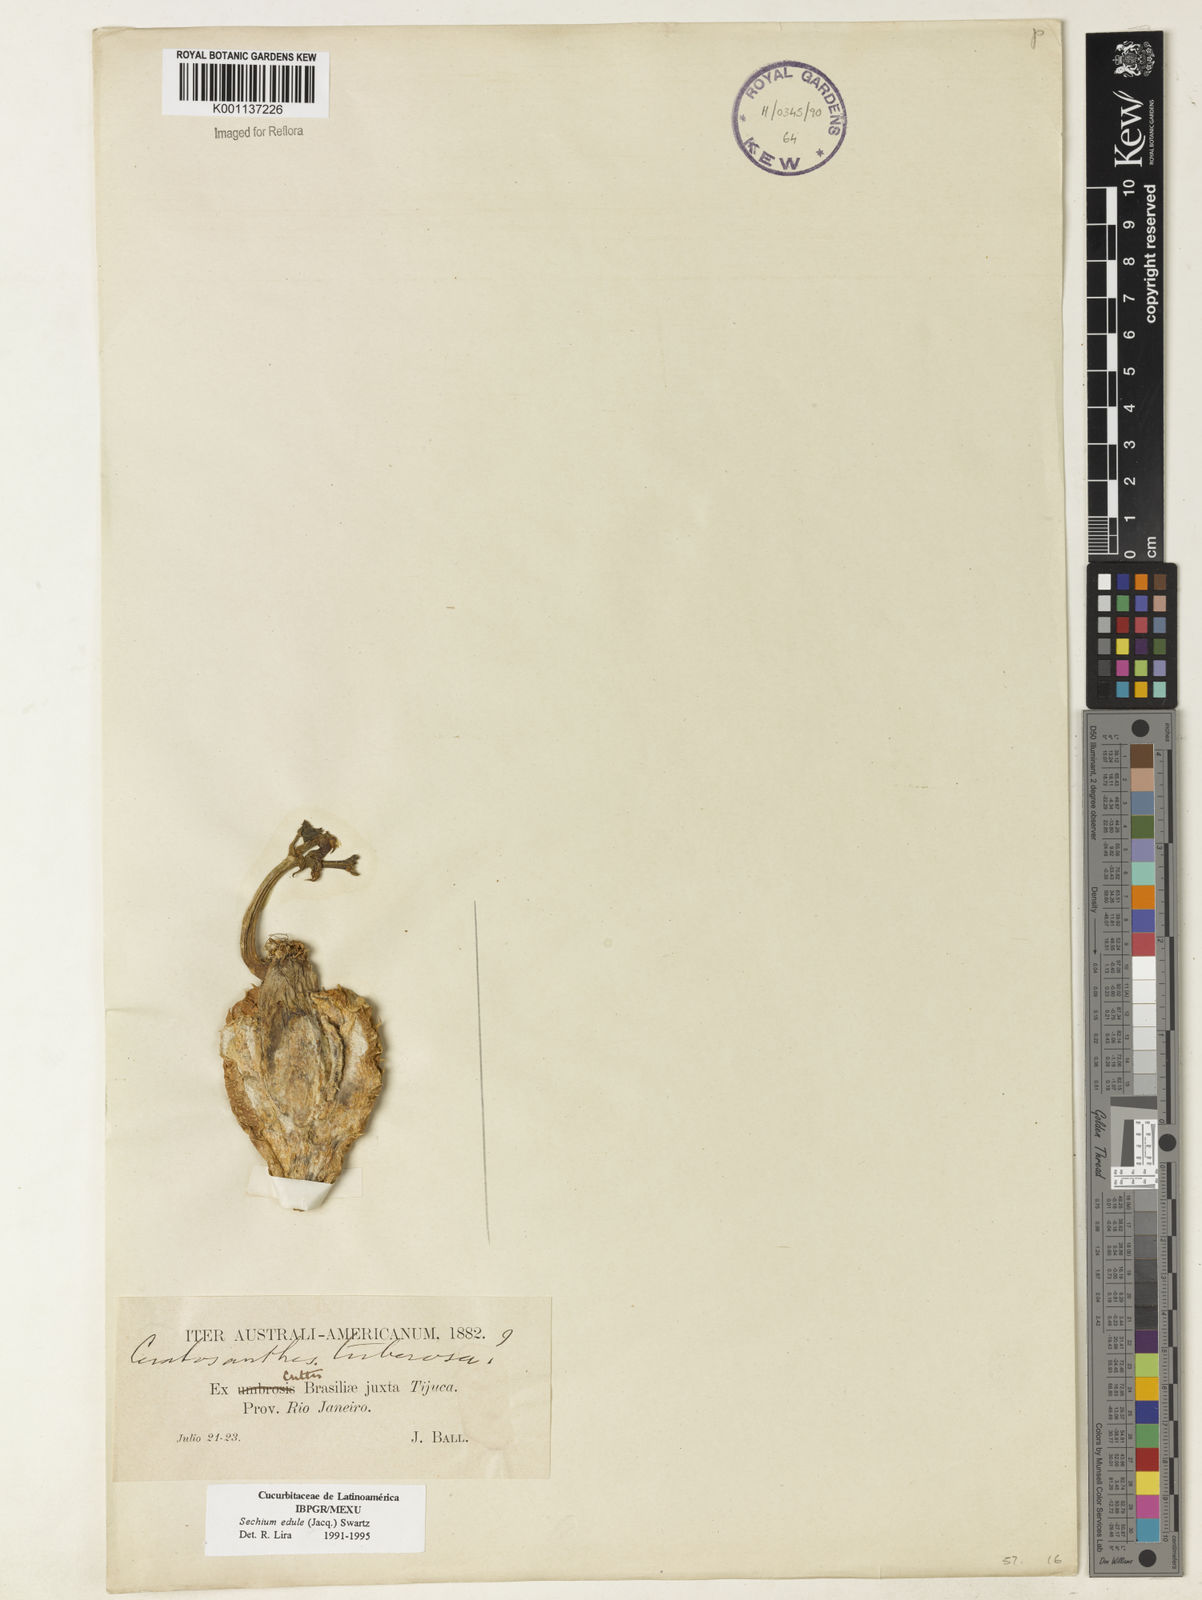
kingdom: Plantae
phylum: Tracheophyta
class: Magnoliopsida
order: Cucurbitales
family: Cucurbitaceae
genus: Sechium
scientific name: Sechium edule
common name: Chayote
